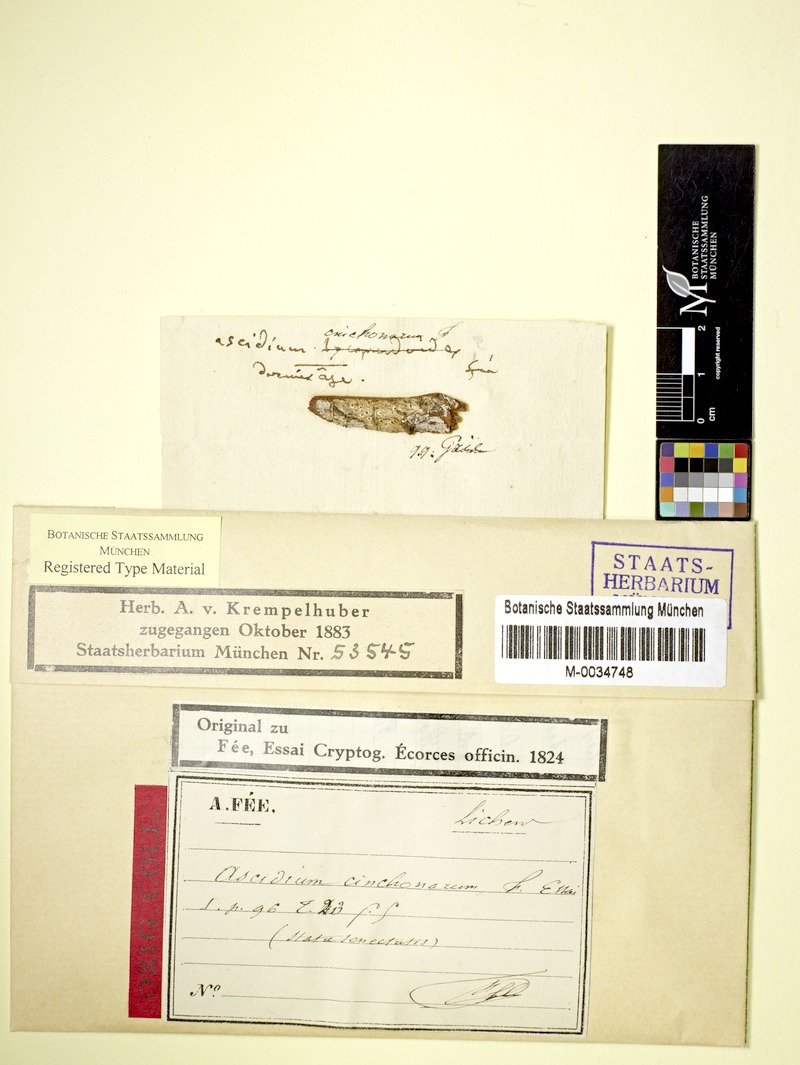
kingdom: Fungi
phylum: Ascomycota
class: Lecanoromycetes
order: Ostropales
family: Graphidaceae
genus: Ocellularia
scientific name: Ocellularia cavata
